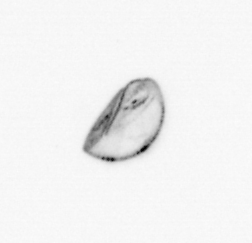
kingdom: Chromista
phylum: Ochrophyta
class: Bacillariophyceae
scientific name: Bacillariophyceae
